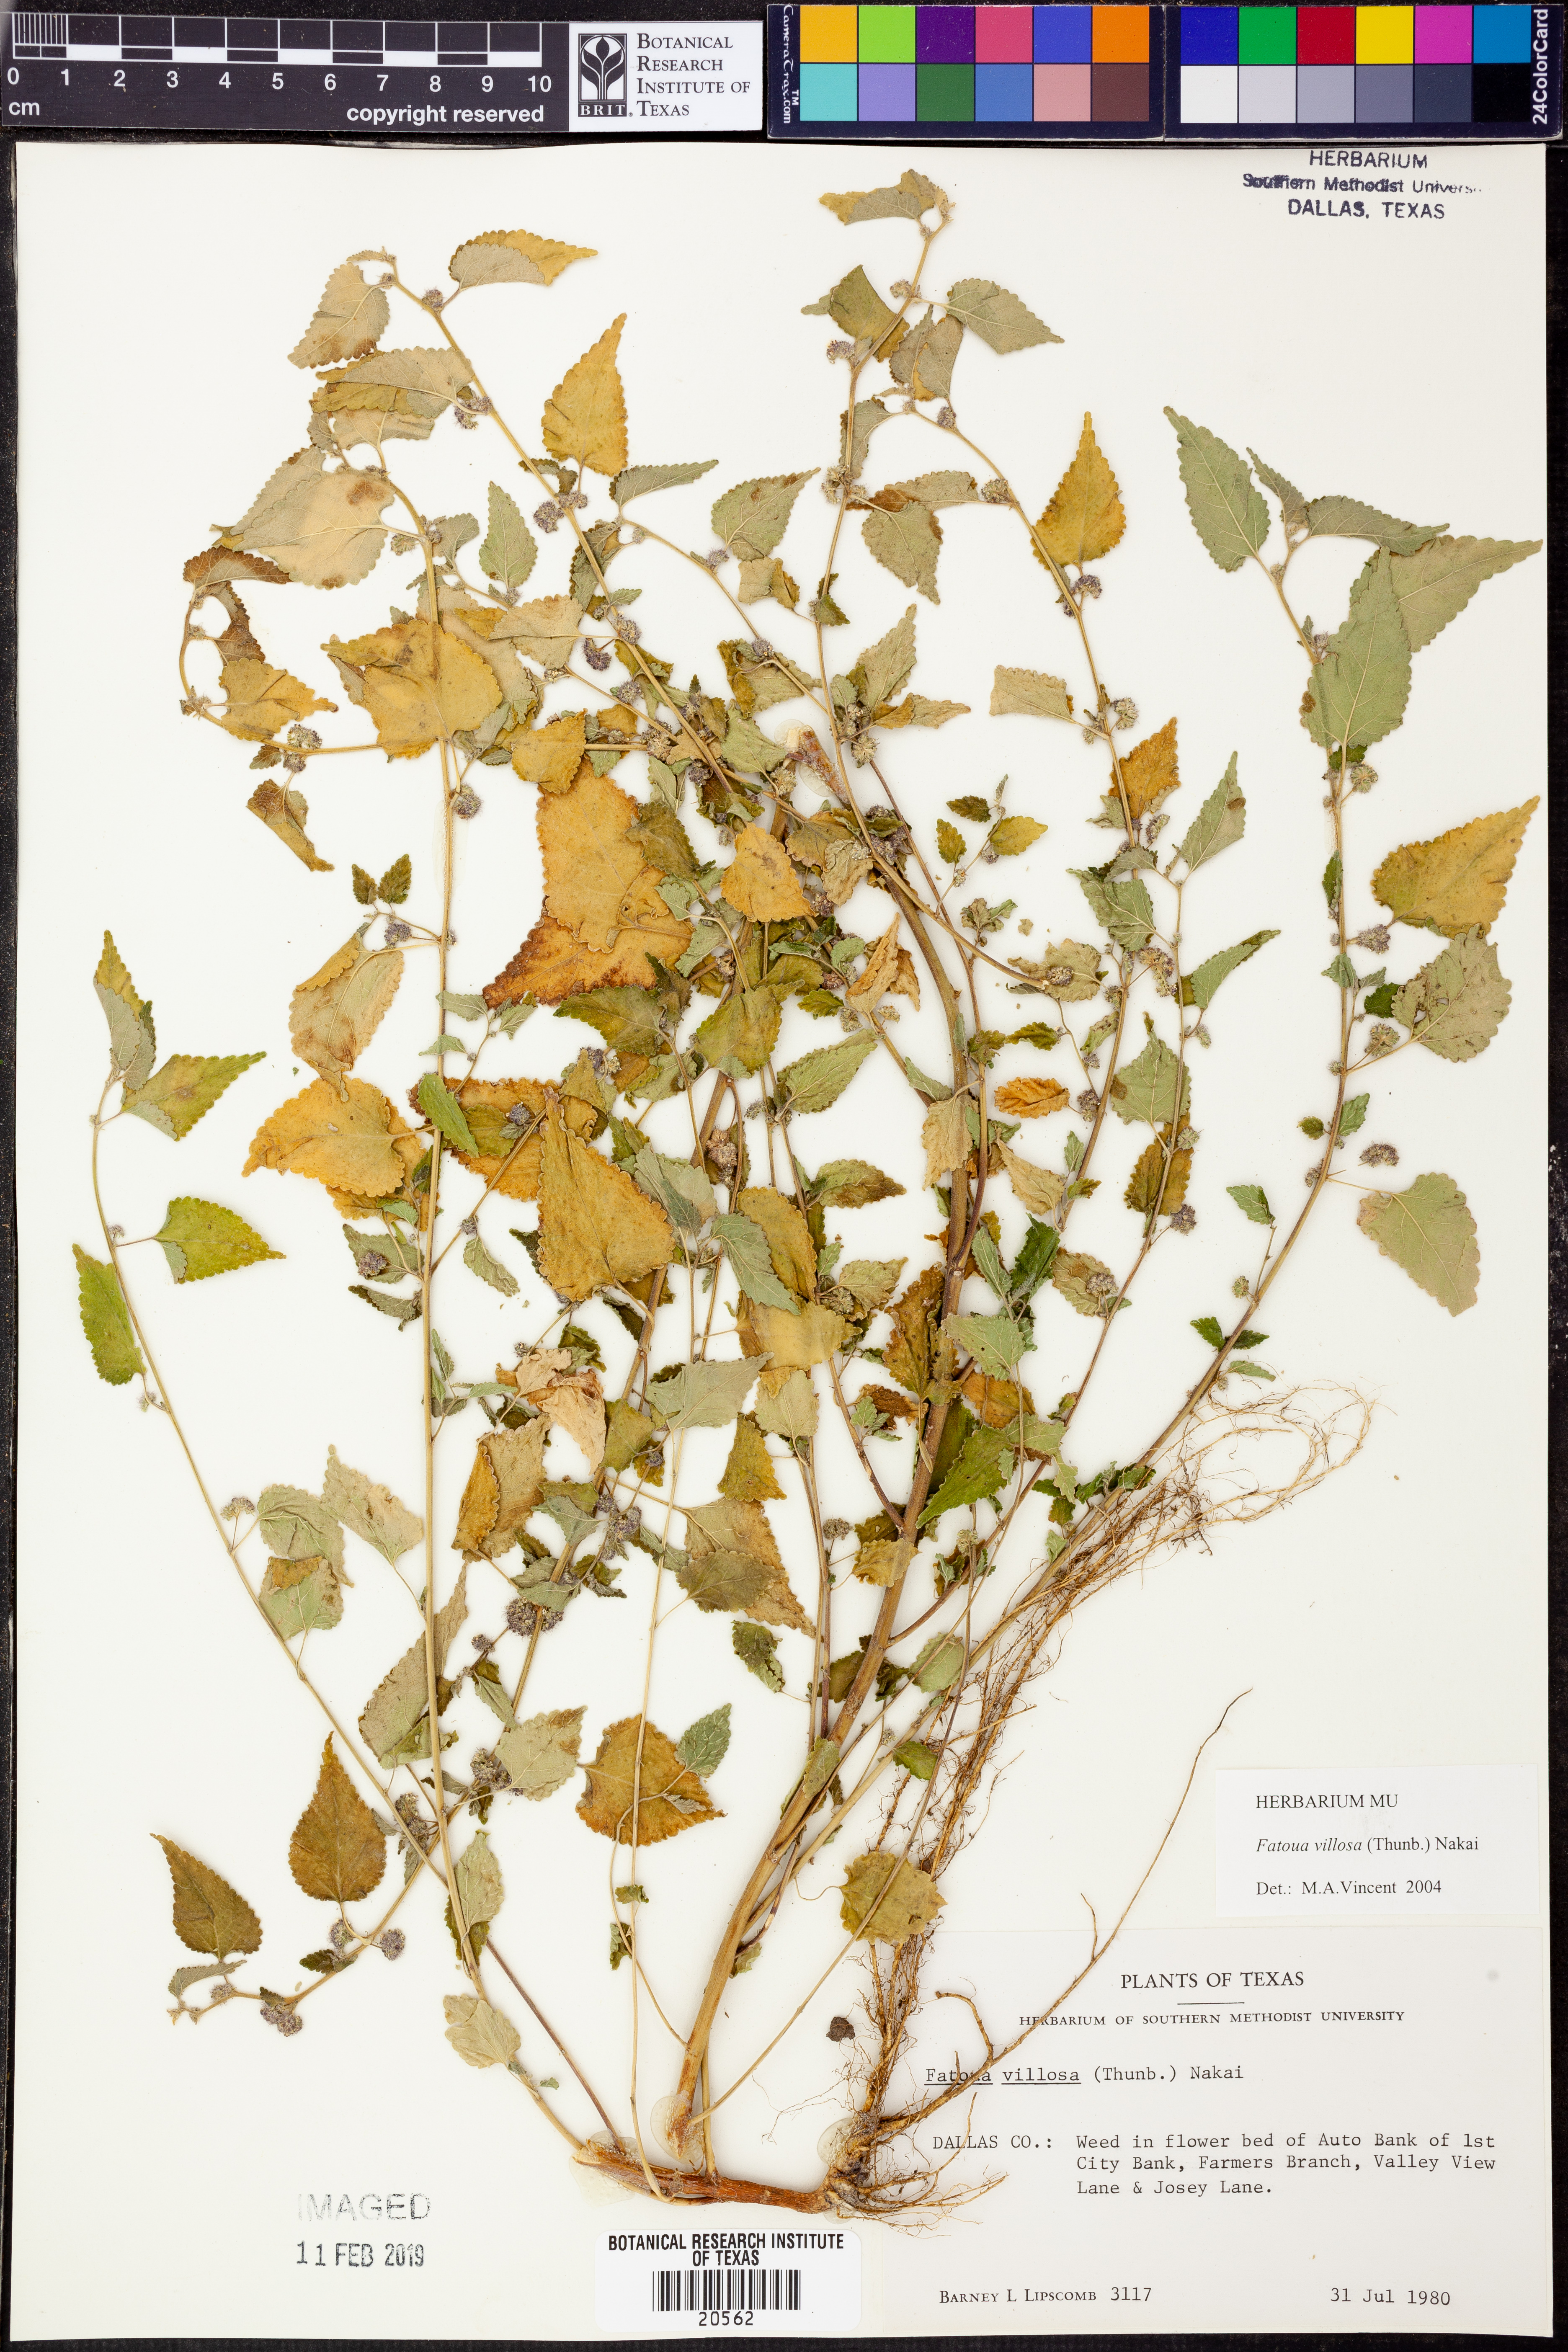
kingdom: Plantae
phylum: Tracheophyta
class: Magnoliopsida
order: Rosales
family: Moraceae
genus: Fatoua
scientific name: Fatoua villosa
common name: Hairy crabweed
